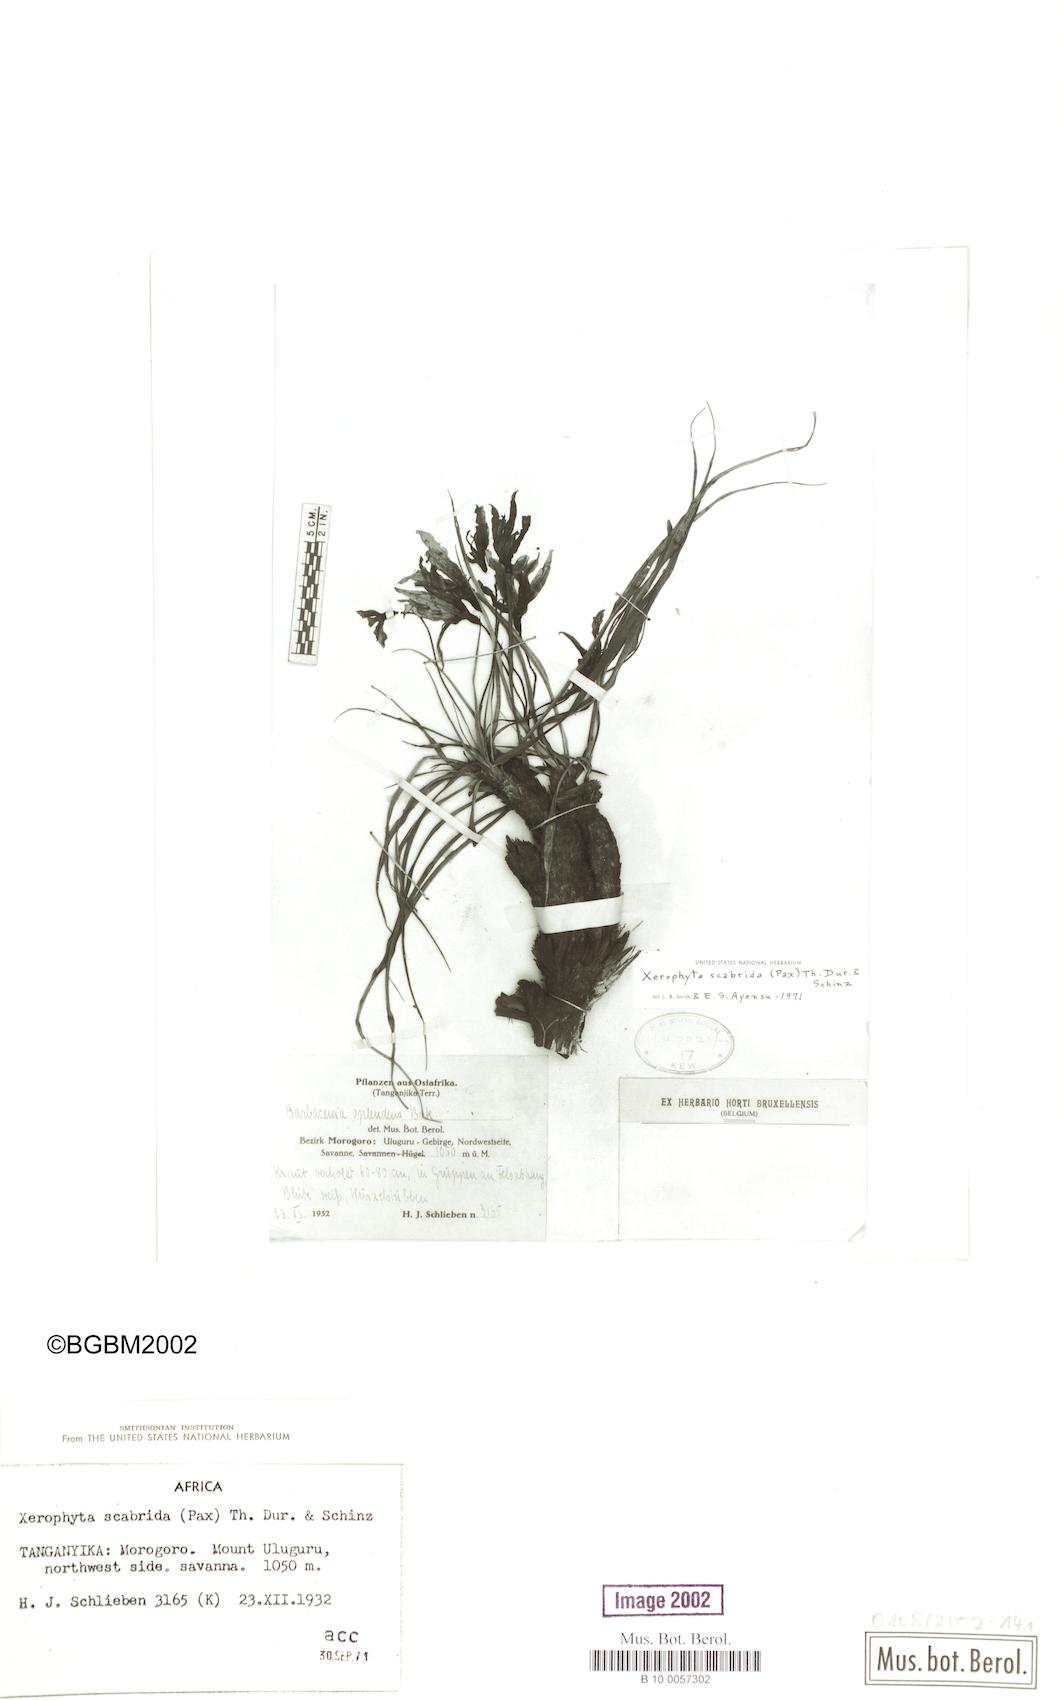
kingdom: Plantae
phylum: Tracheophyta
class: Liliopsida
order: Pandanales
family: Velloziaceae
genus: Xerophyta
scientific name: Xerophyta scabrida
